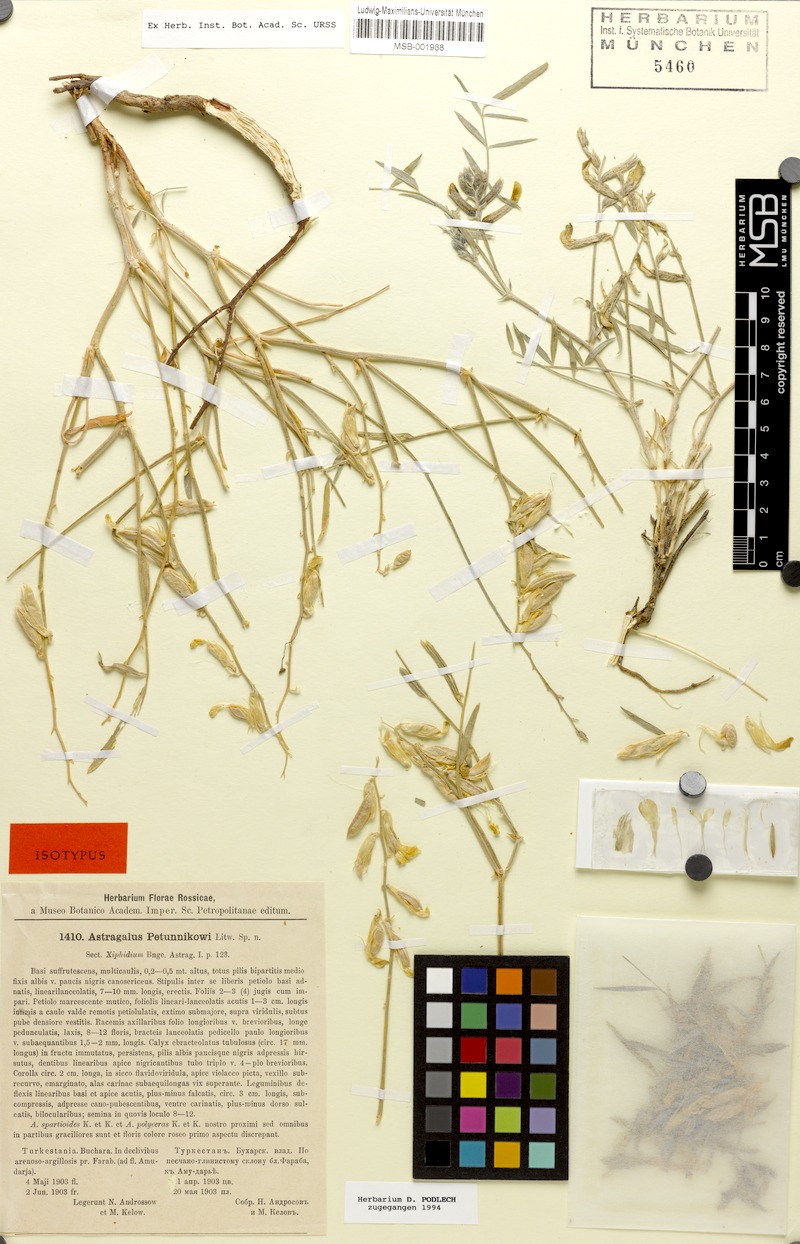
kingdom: Plantae
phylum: Tracheophyta
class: Magnoliopsida
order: Fabales
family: Fabaceae
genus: Astragalus
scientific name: Astragalus petunnikowii
